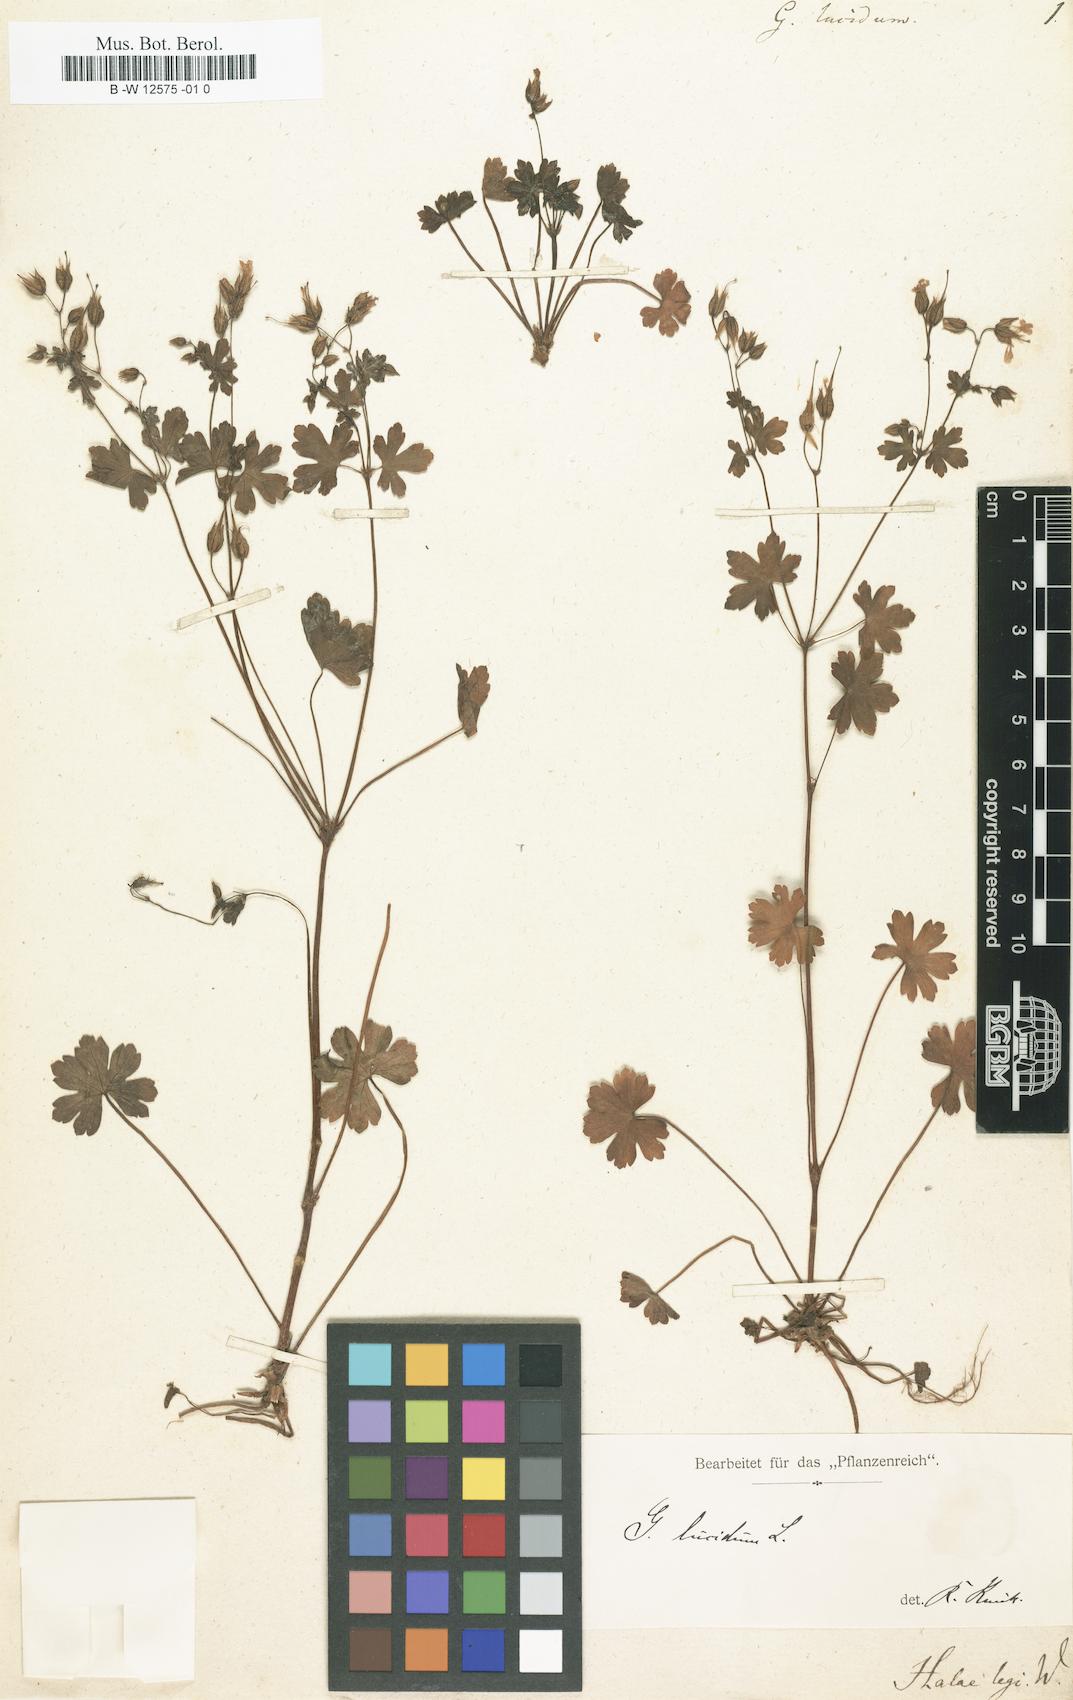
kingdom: Plantae
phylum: Tracheophyta
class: Magnoliopsida
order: Geraniales
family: Geraniaceae
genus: Geranium
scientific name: Geranium lucidum
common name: Shining crane's-bill
